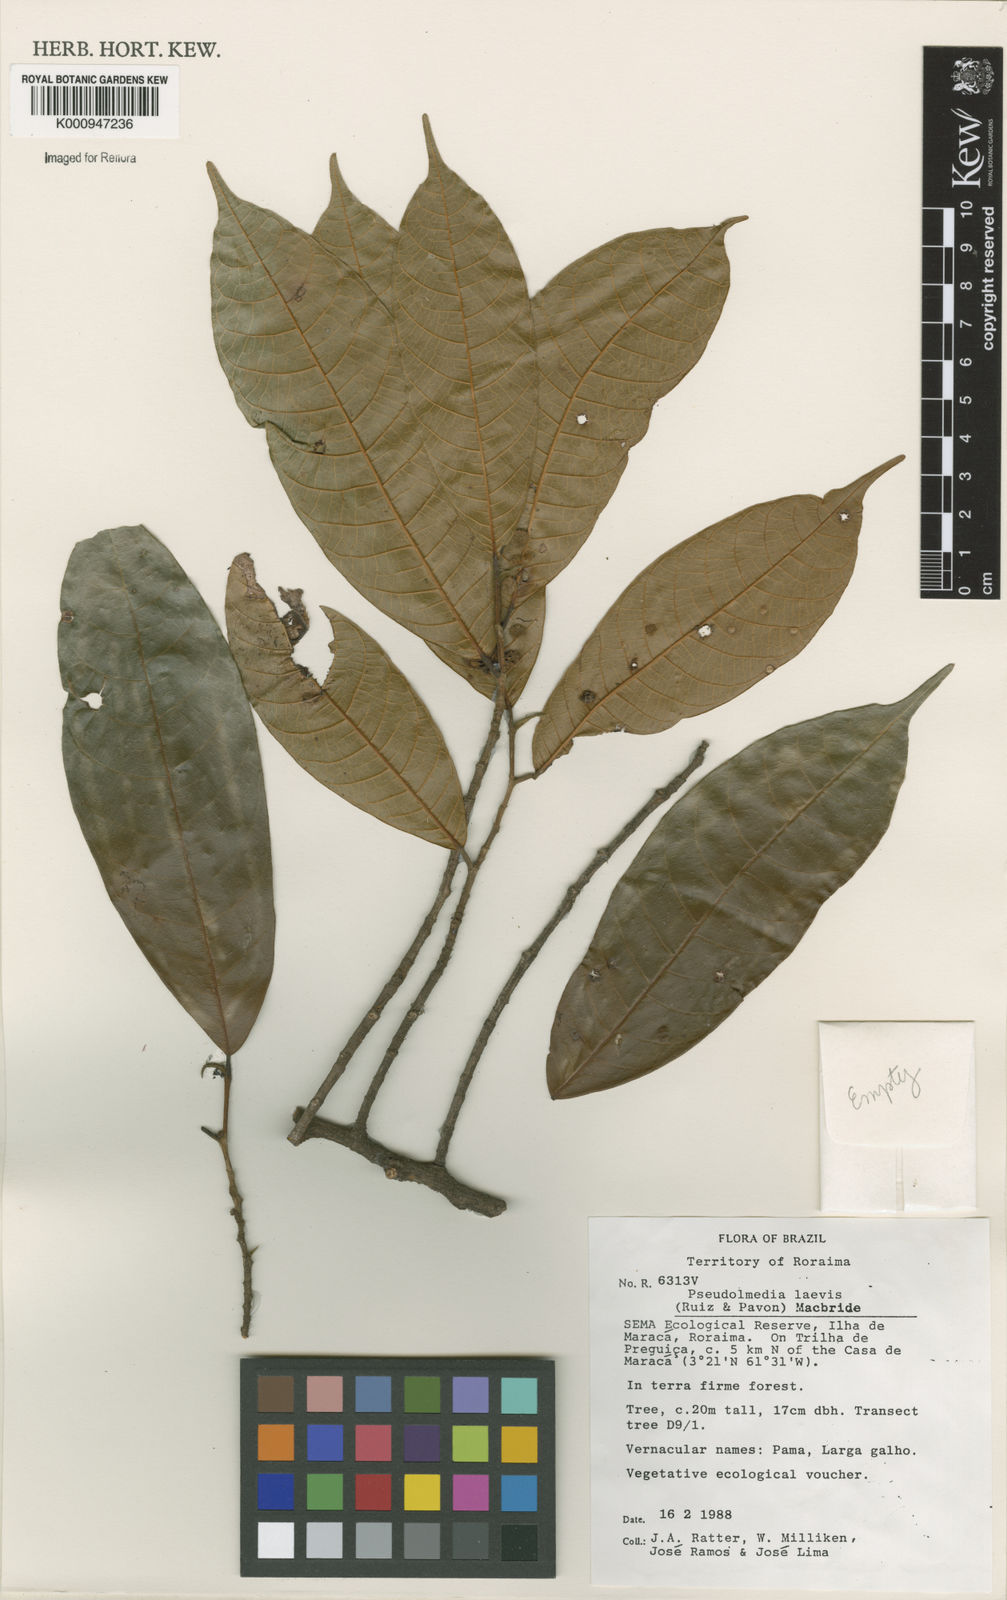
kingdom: Plantae
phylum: Tracheophyta
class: Magnoliopsida
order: Rosales
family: Moraceae
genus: Pseudolmedia
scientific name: Pseudolmedia laevis
